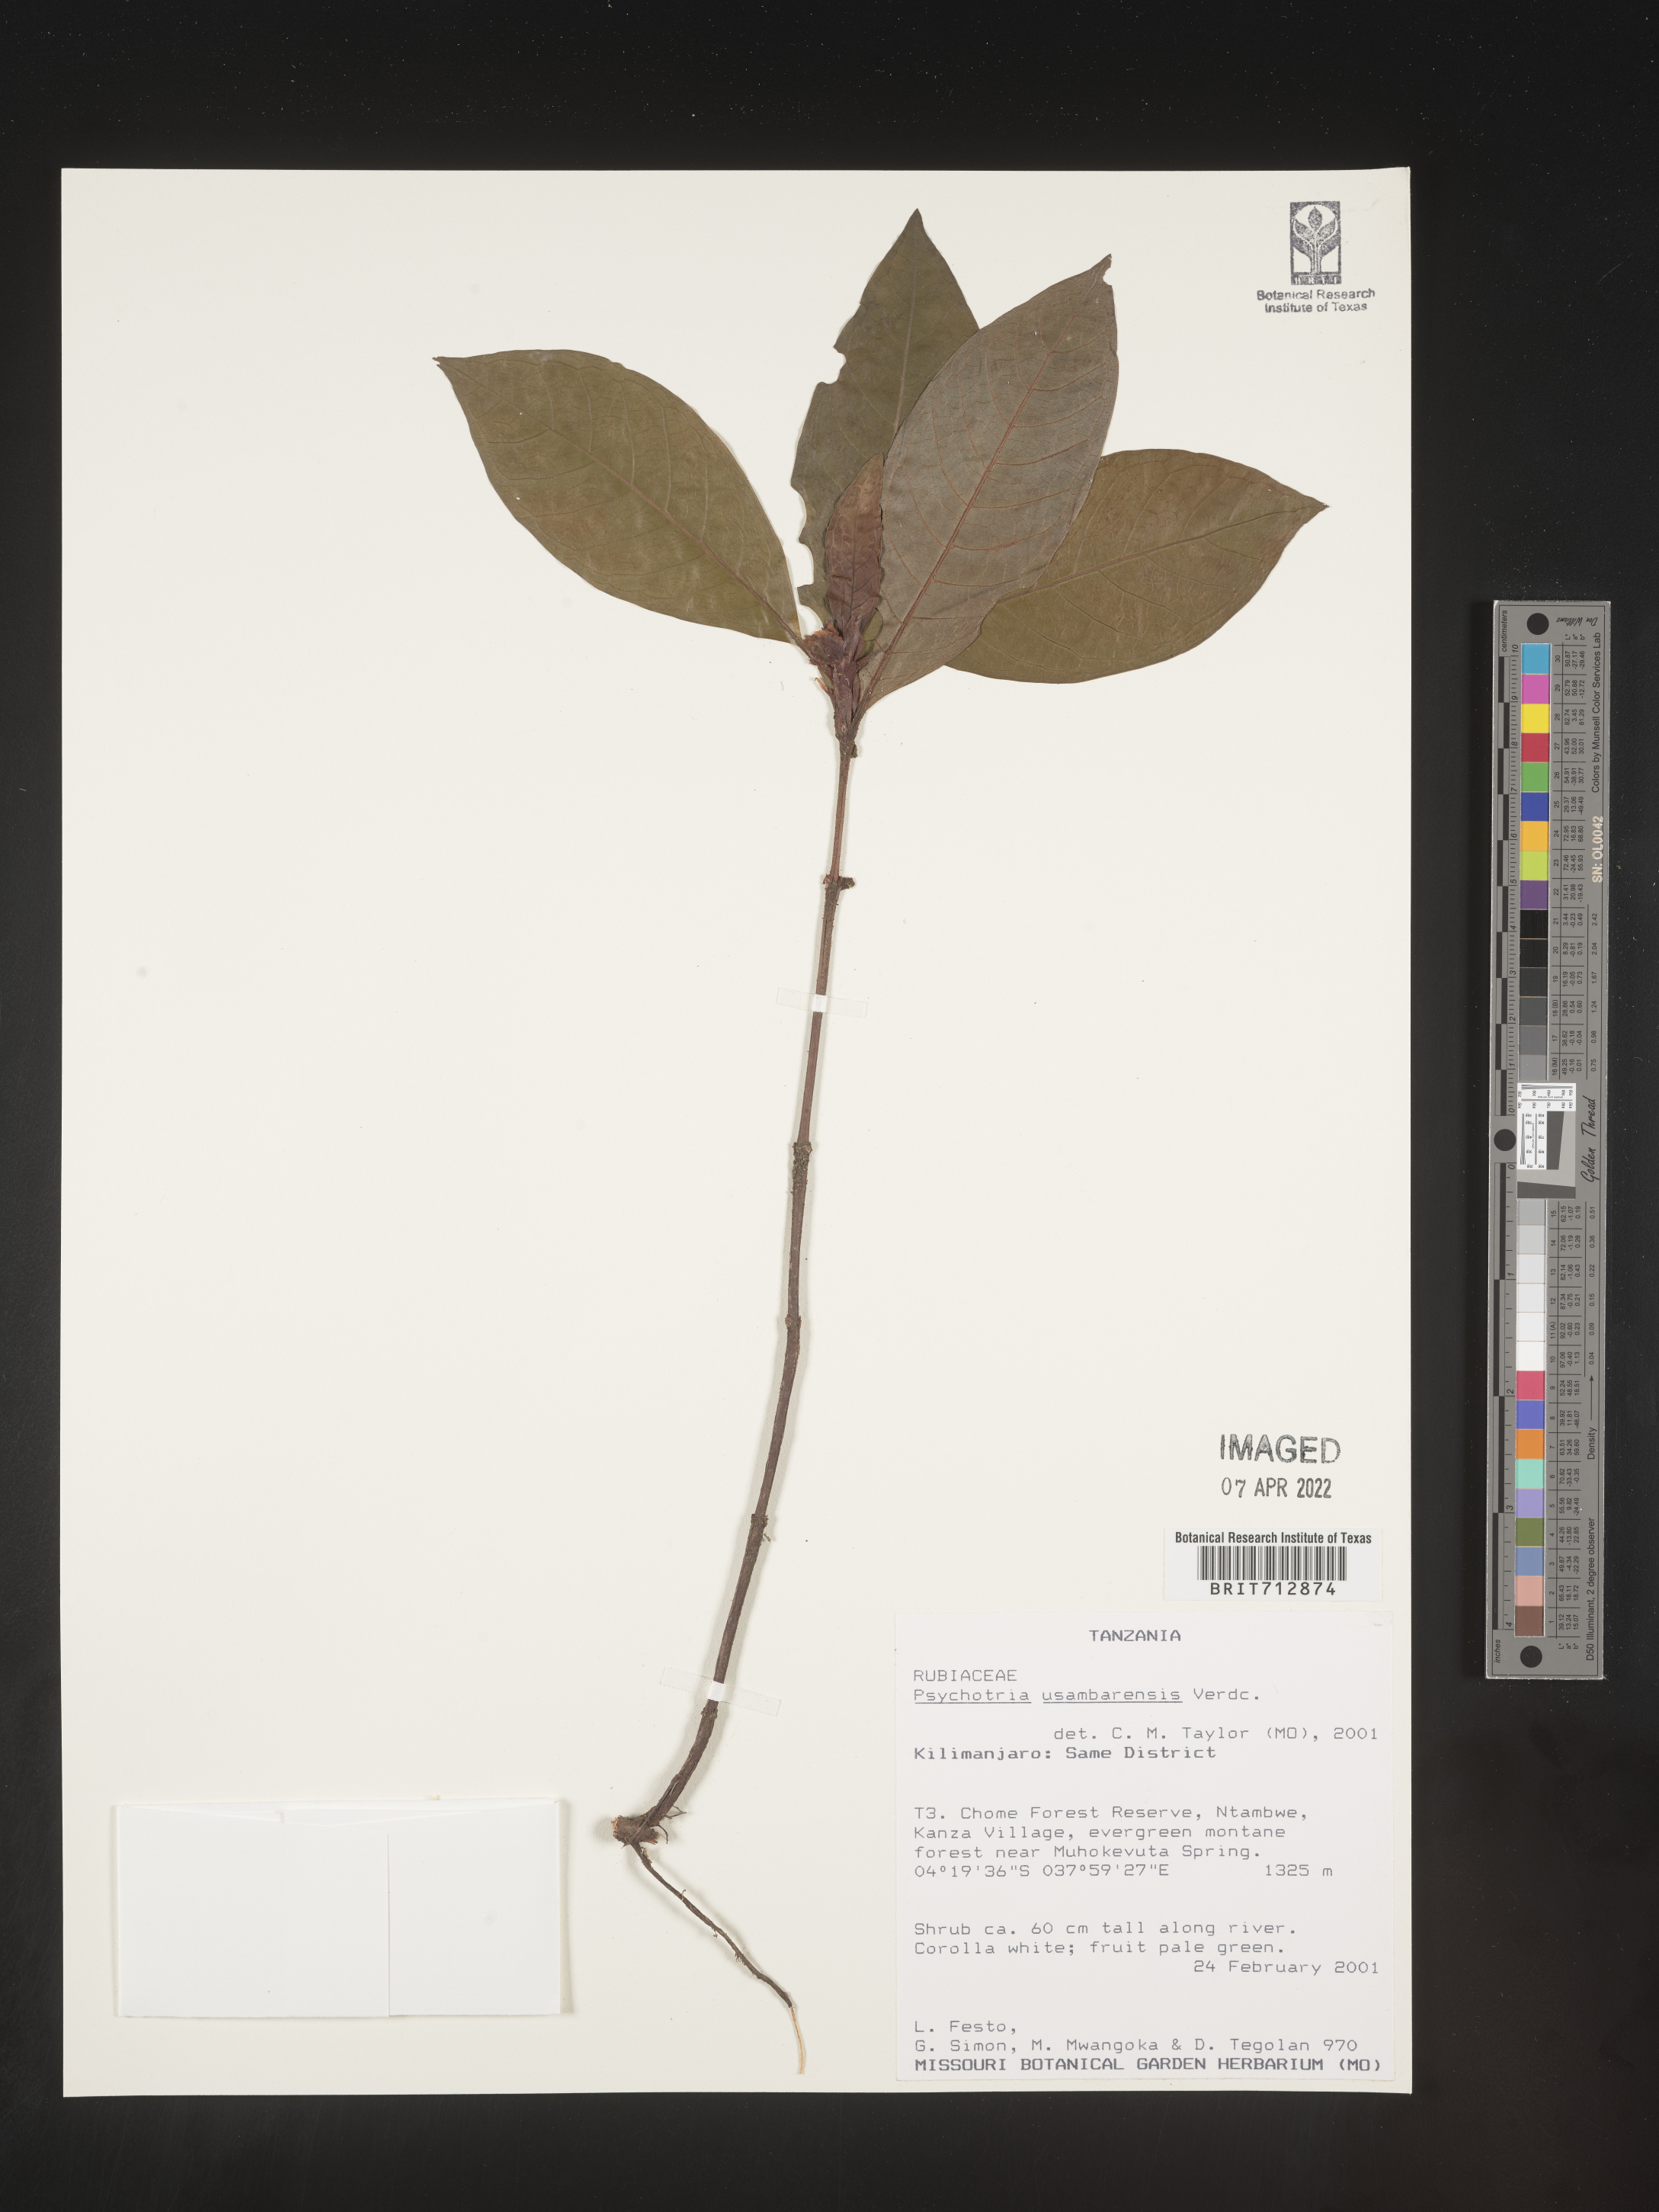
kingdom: Plantae
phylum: Tracheophyta
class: Magnoliopsida
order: Gentianales
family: Rubiaceae
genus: Psychotria
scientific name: Psychotria
